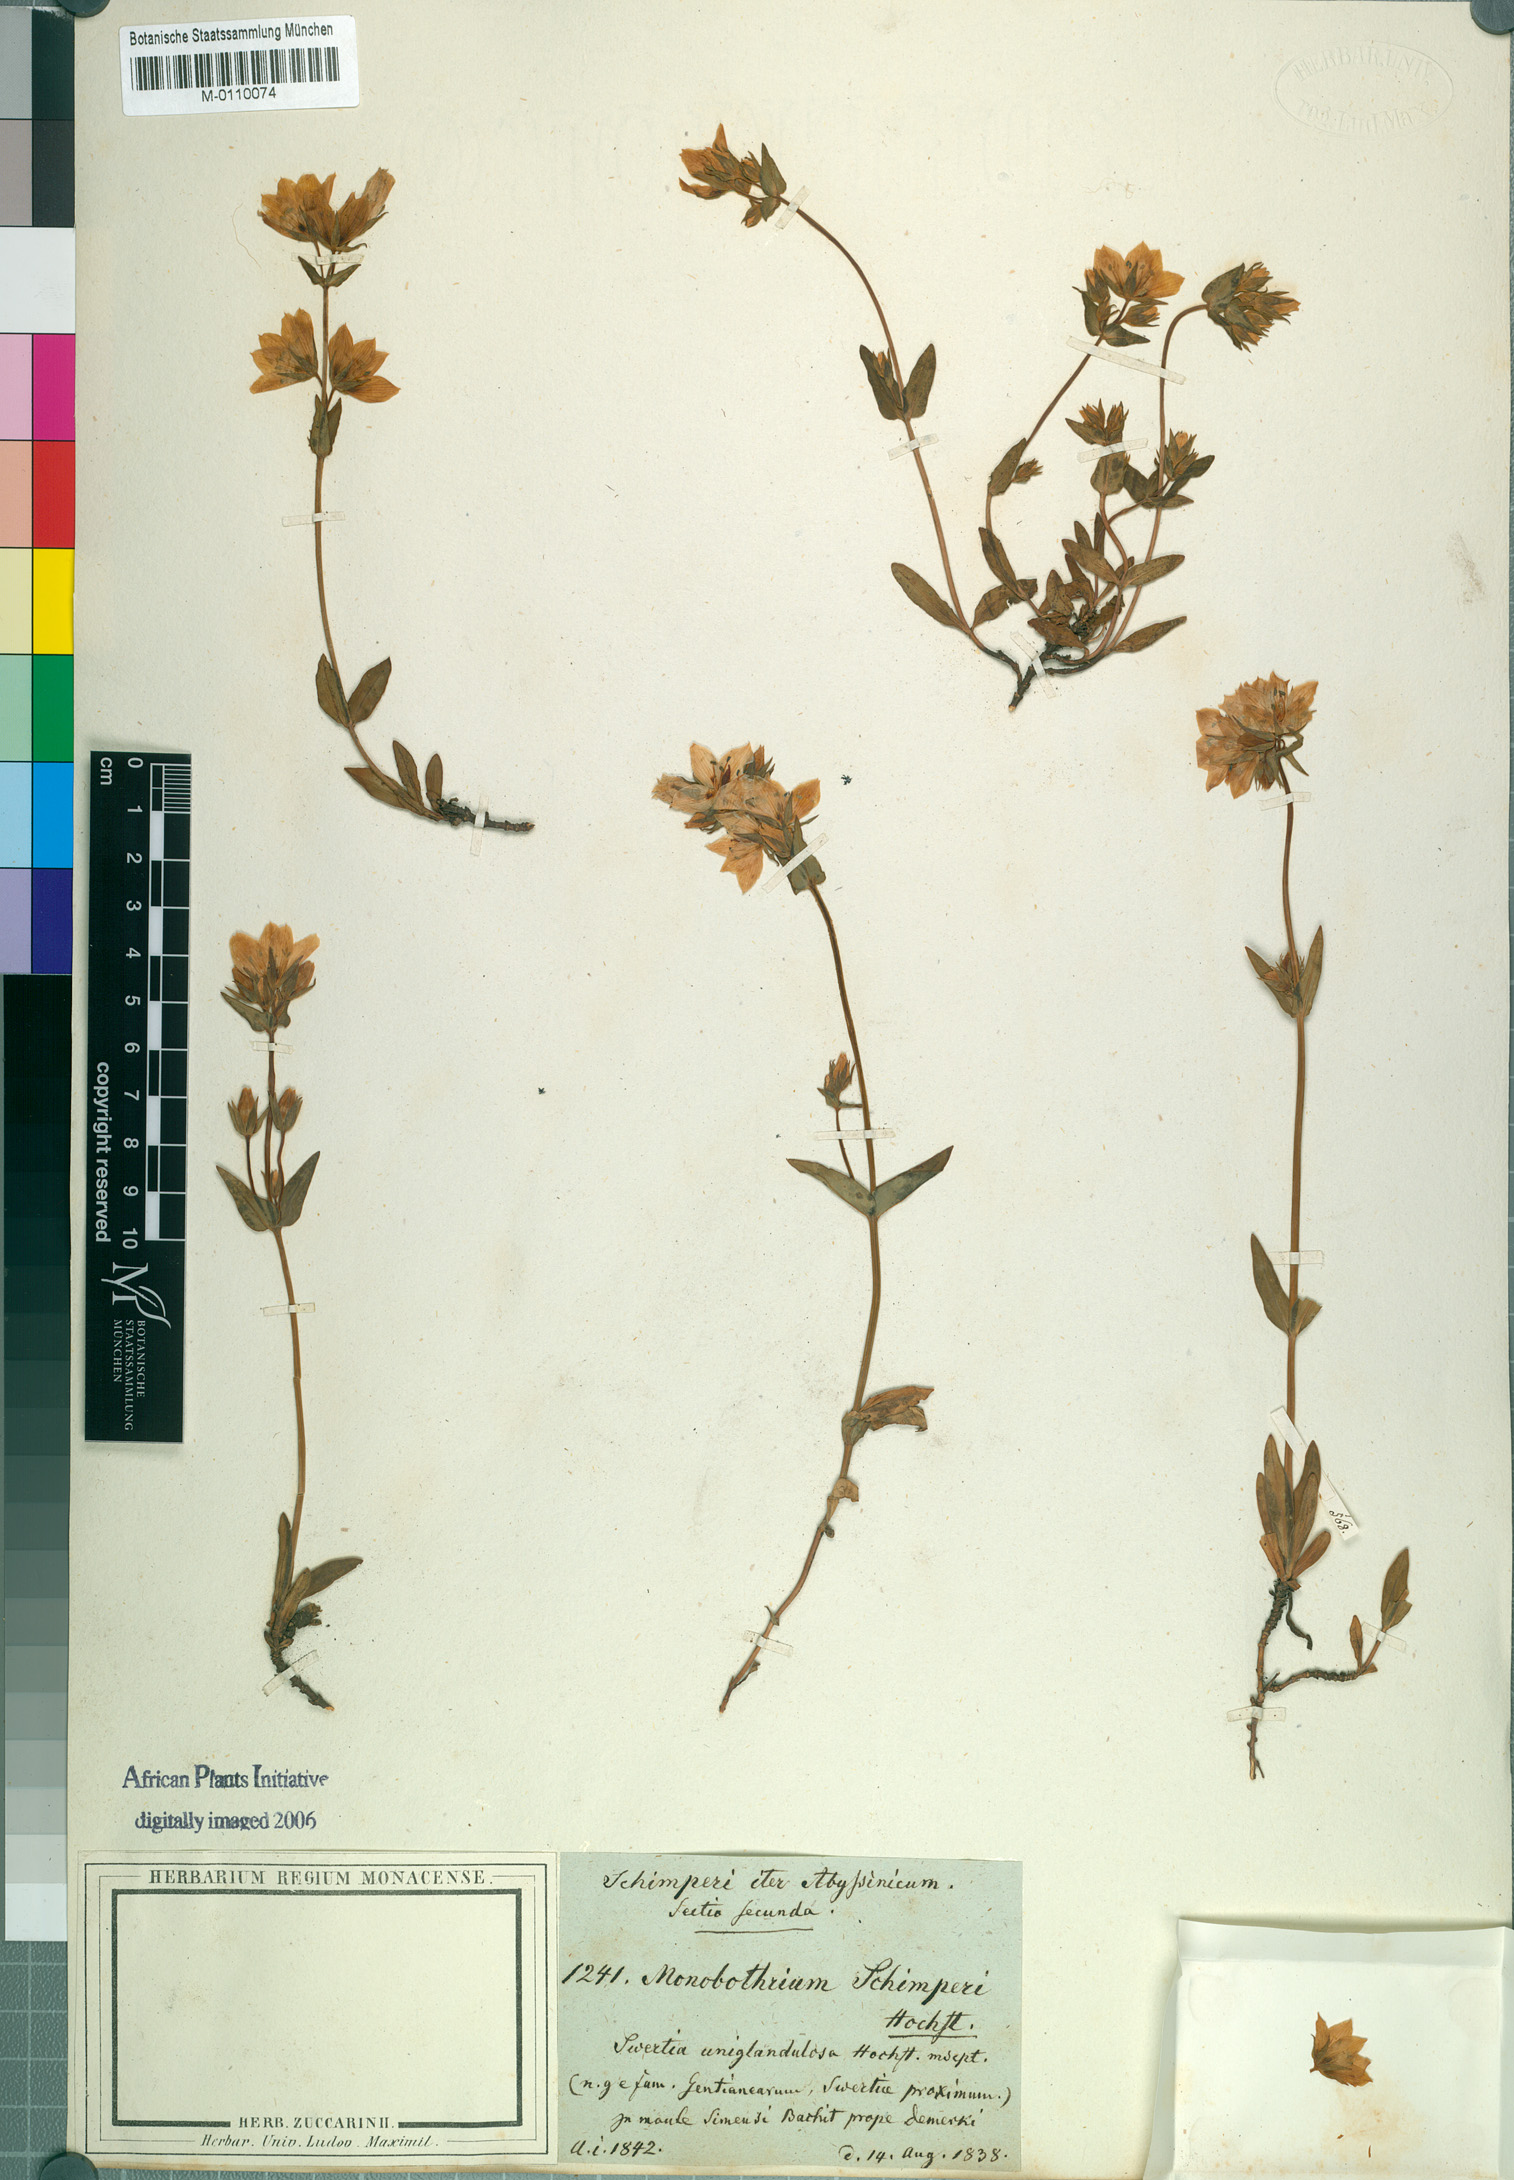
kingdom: Plantae
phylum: Tracheophyta
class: Magnoliopsida
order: Gentianales
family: Gentianaceae
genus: Swertia
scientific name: Swertia schimperi
